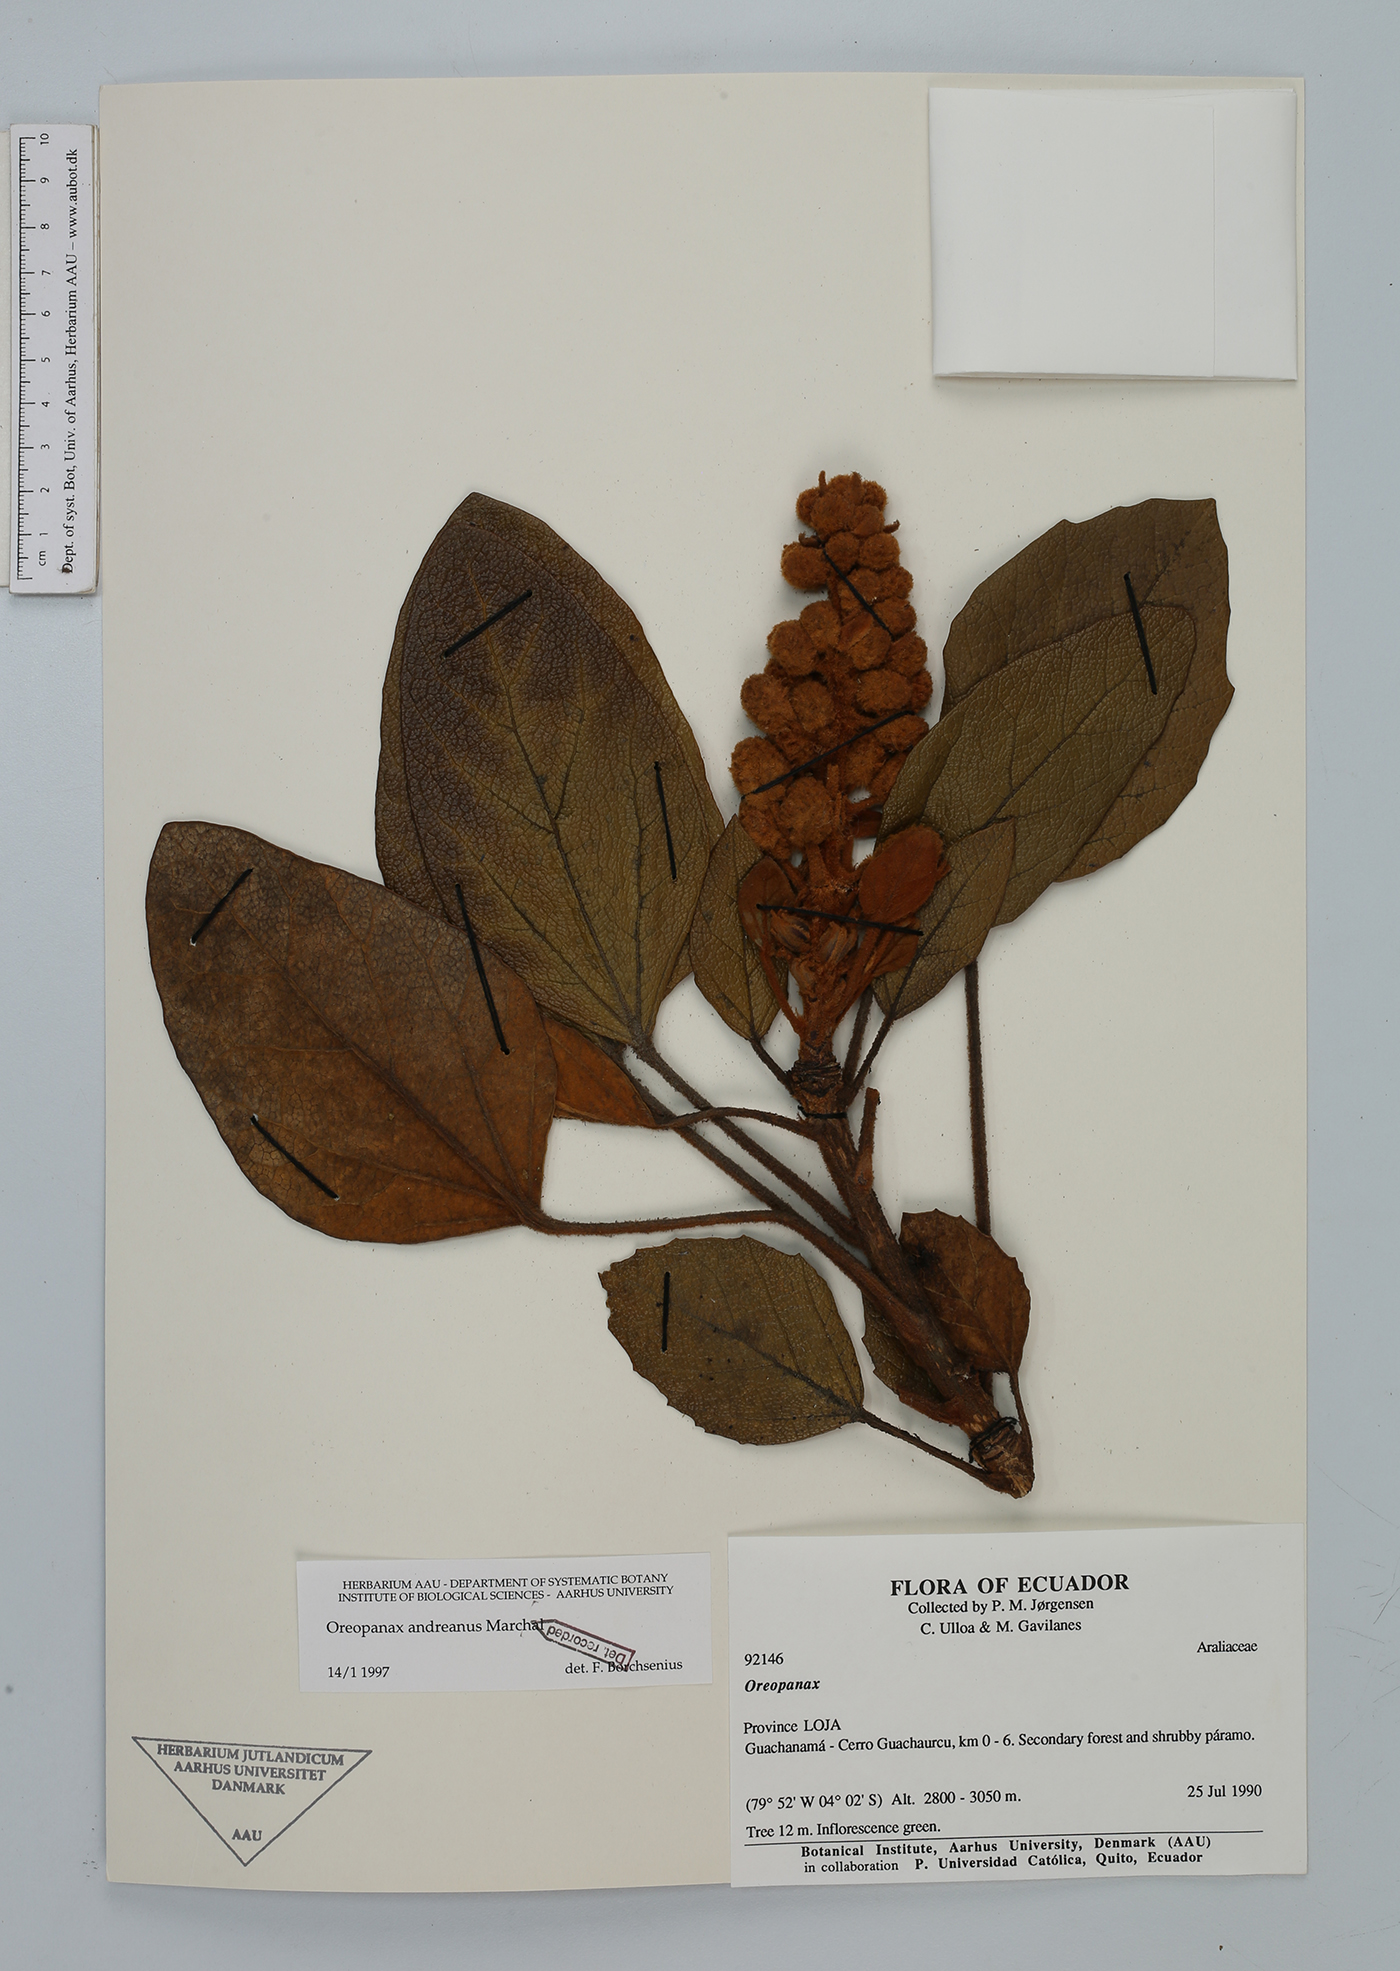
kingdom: Plantae
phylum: Tracheophyta
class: Magnoliopsida
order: Apiales
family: Araliaceae
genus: Oreopanax
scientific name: Oreopanax andreanus
